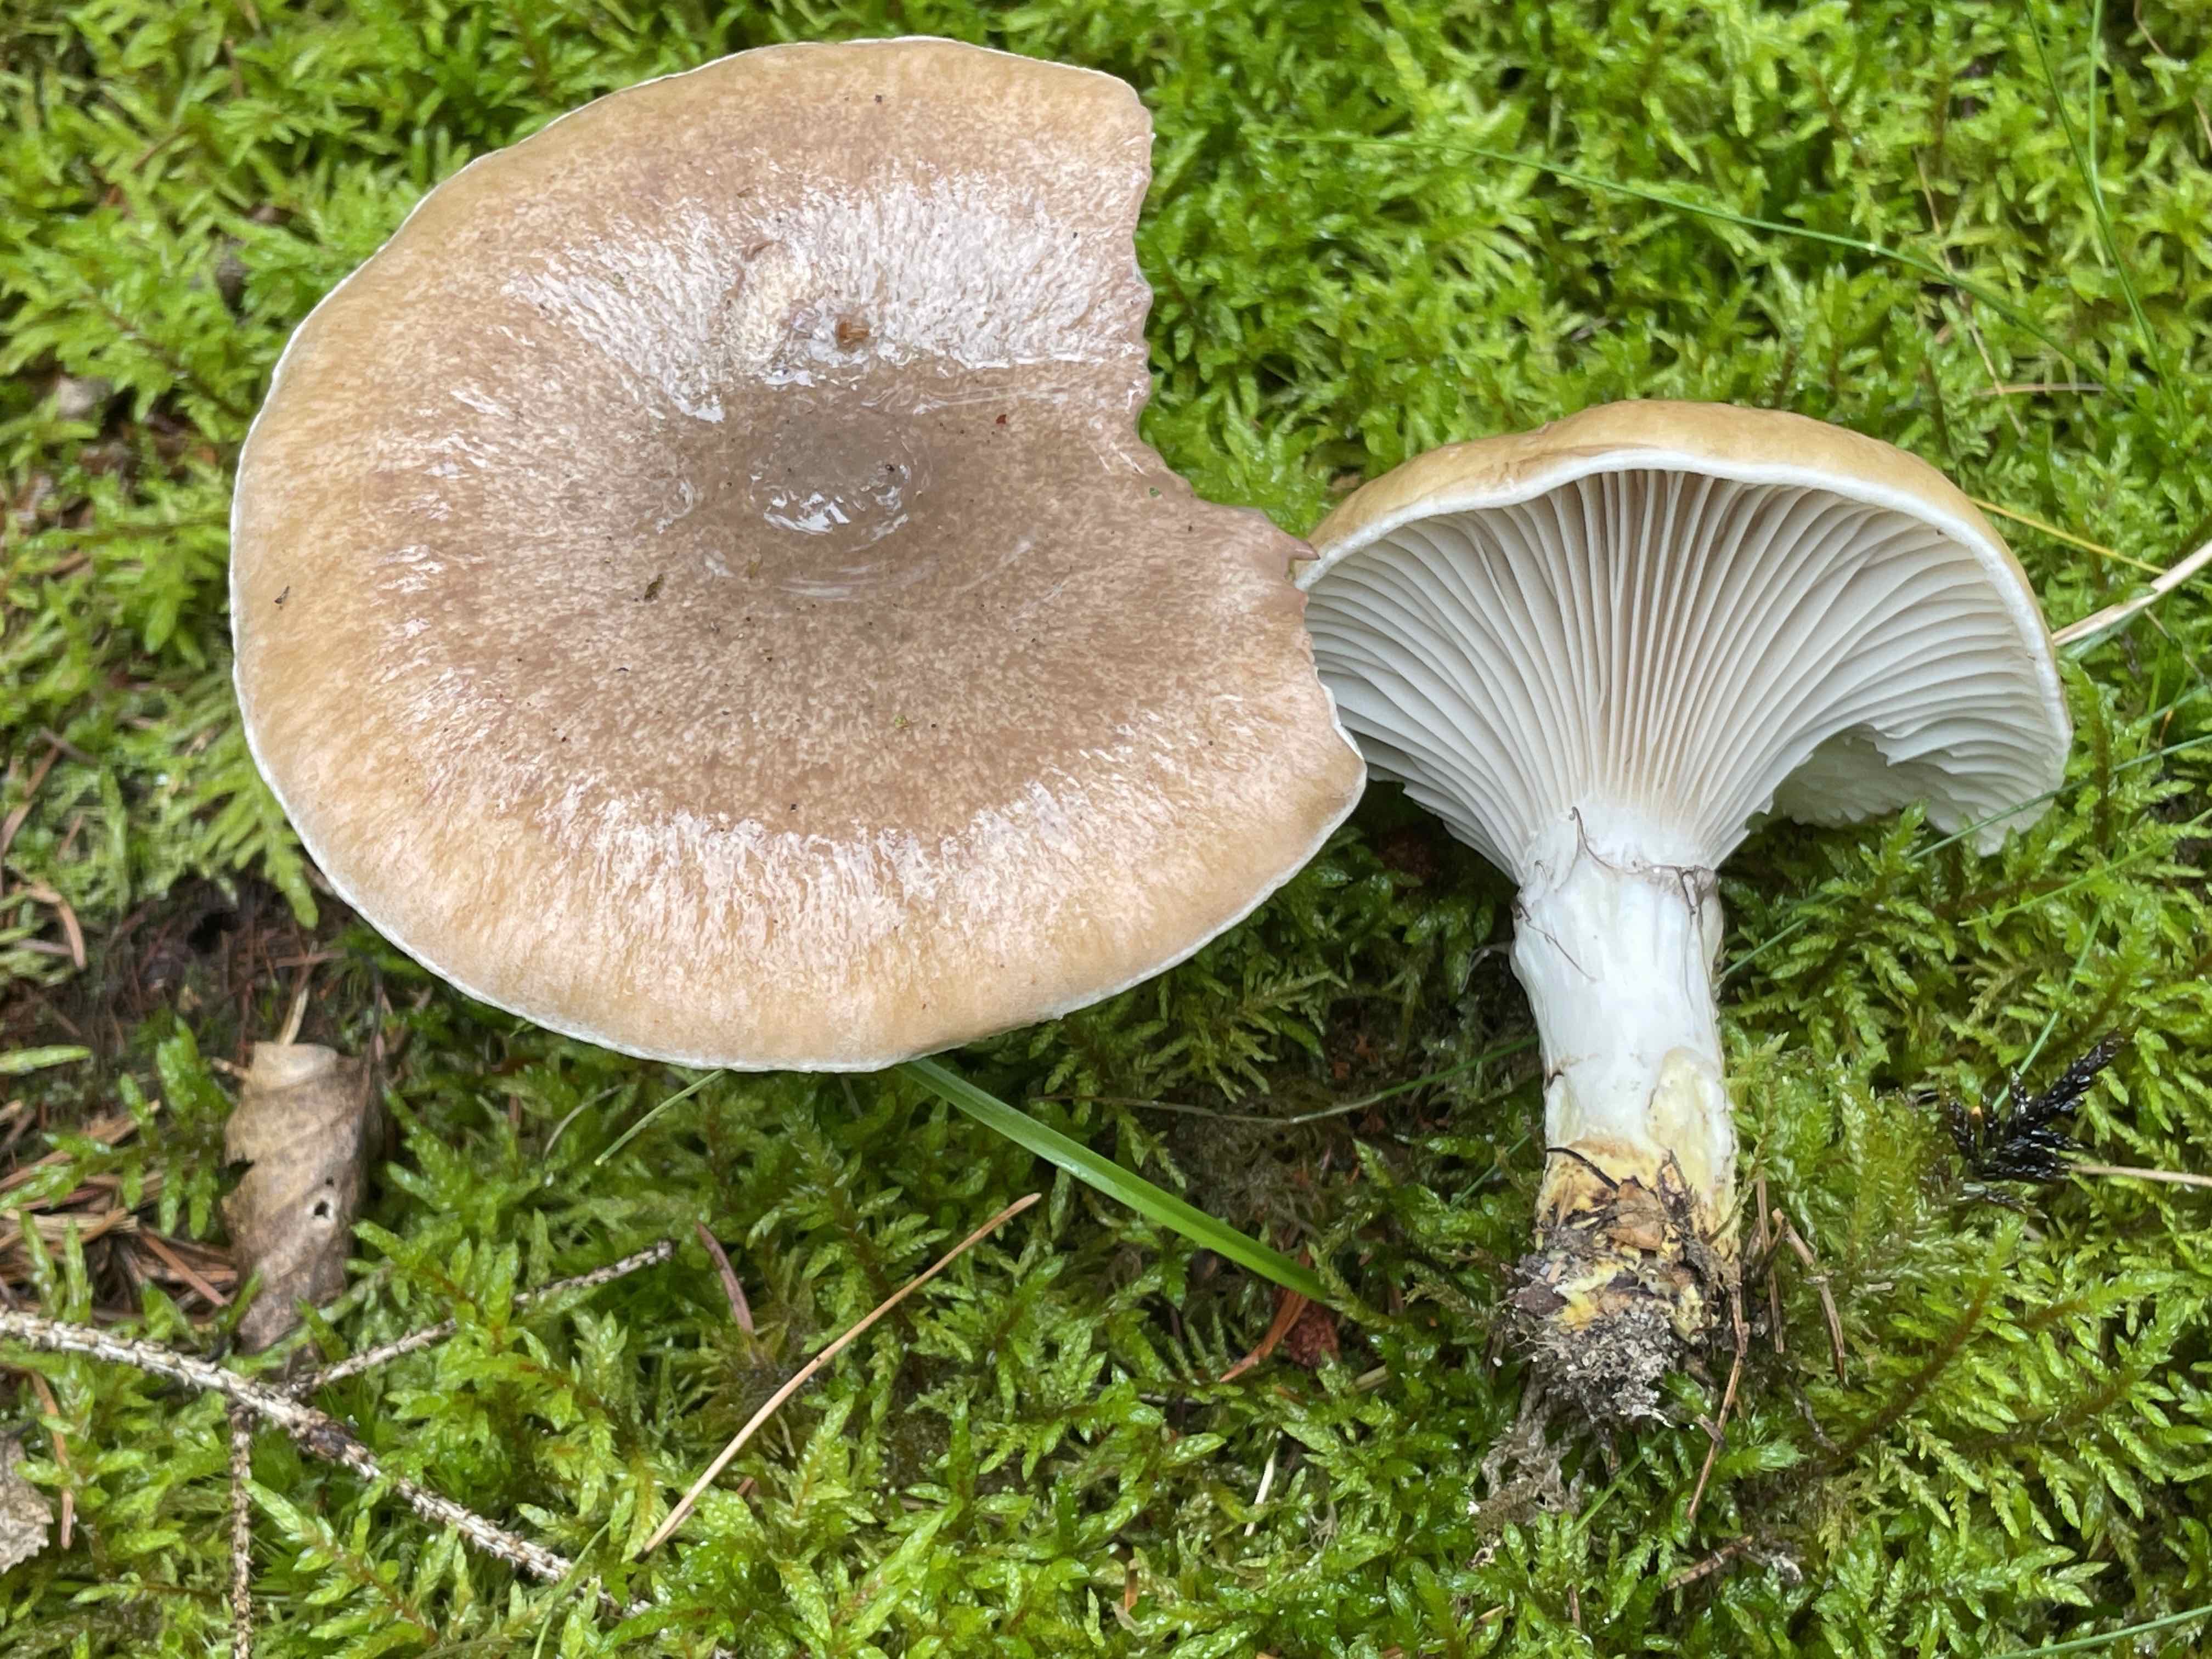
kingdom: Fungi
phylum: Basidiomycota
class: Agaricomycetes
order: Boletales
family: Gomphidiaceae
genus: Gomphidius
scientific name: Gomphidius glutinosus
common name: grå slimslør
